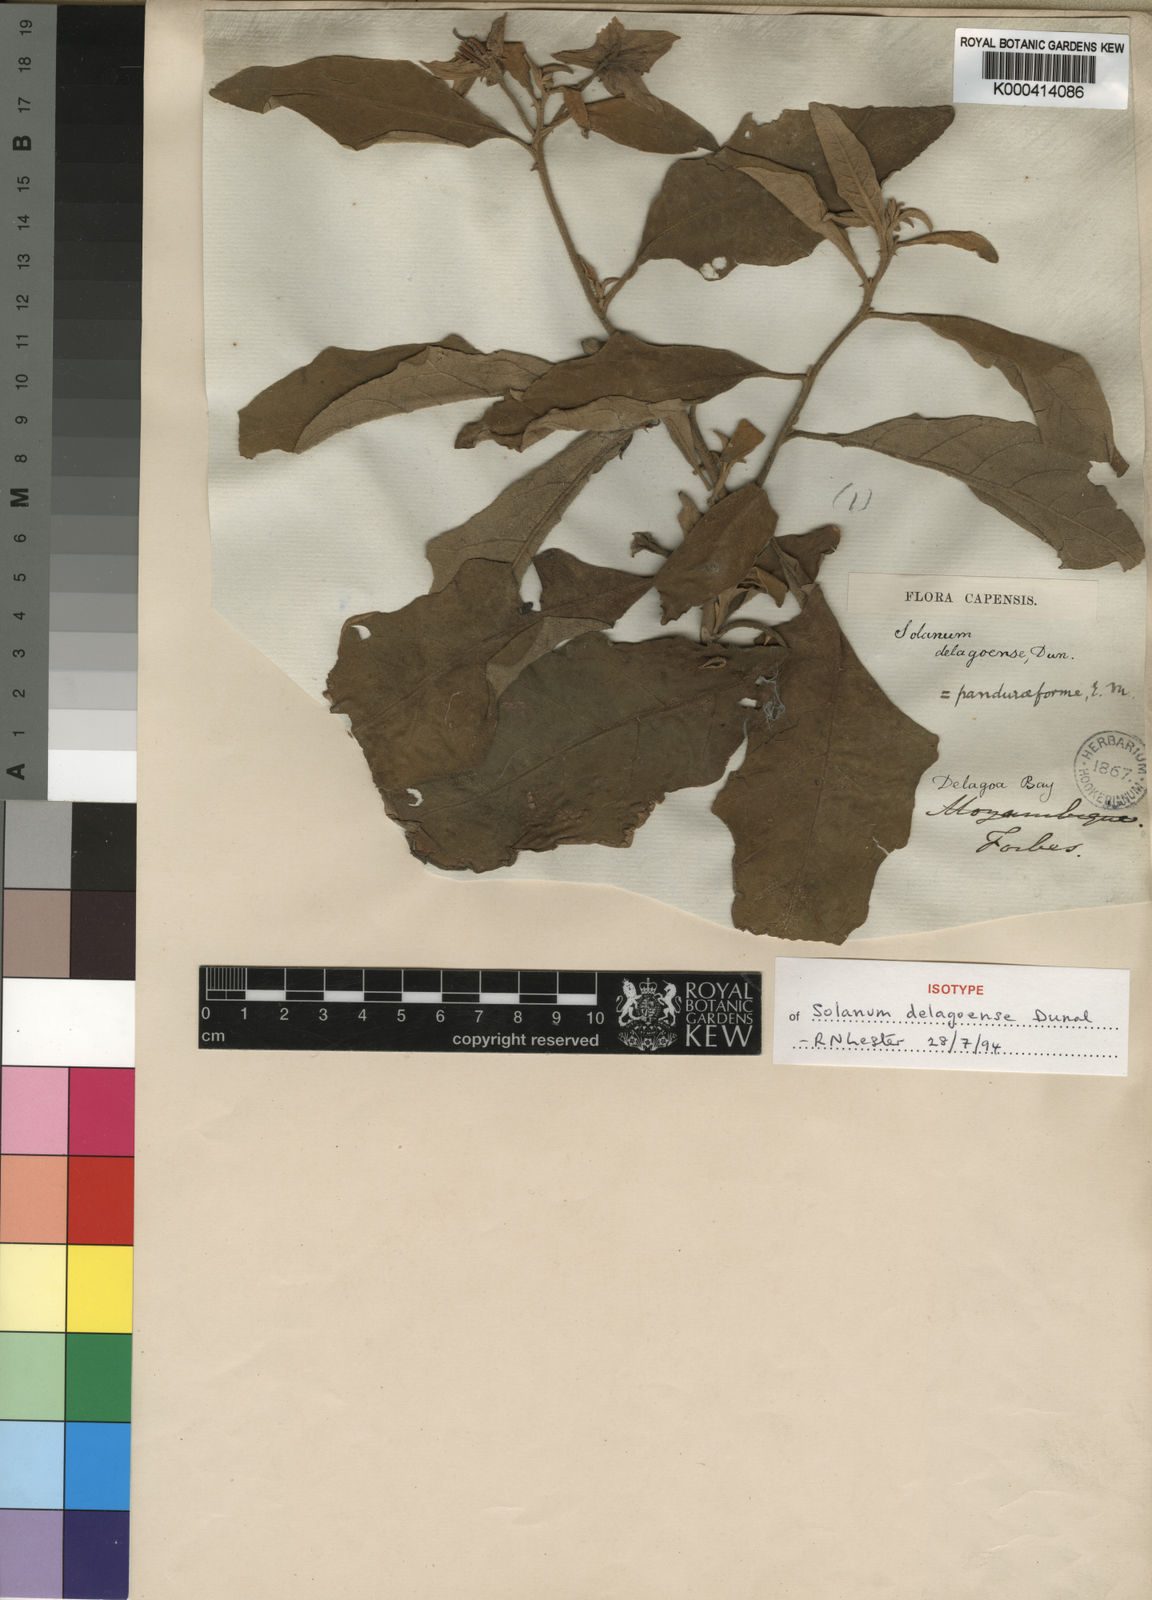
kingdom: Plantae
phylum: Tracheophyta
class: Magnoliopsida
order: Solanales
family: Solanaceae
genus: Solanum
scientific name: Solanum incanum
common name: Bitter apple
